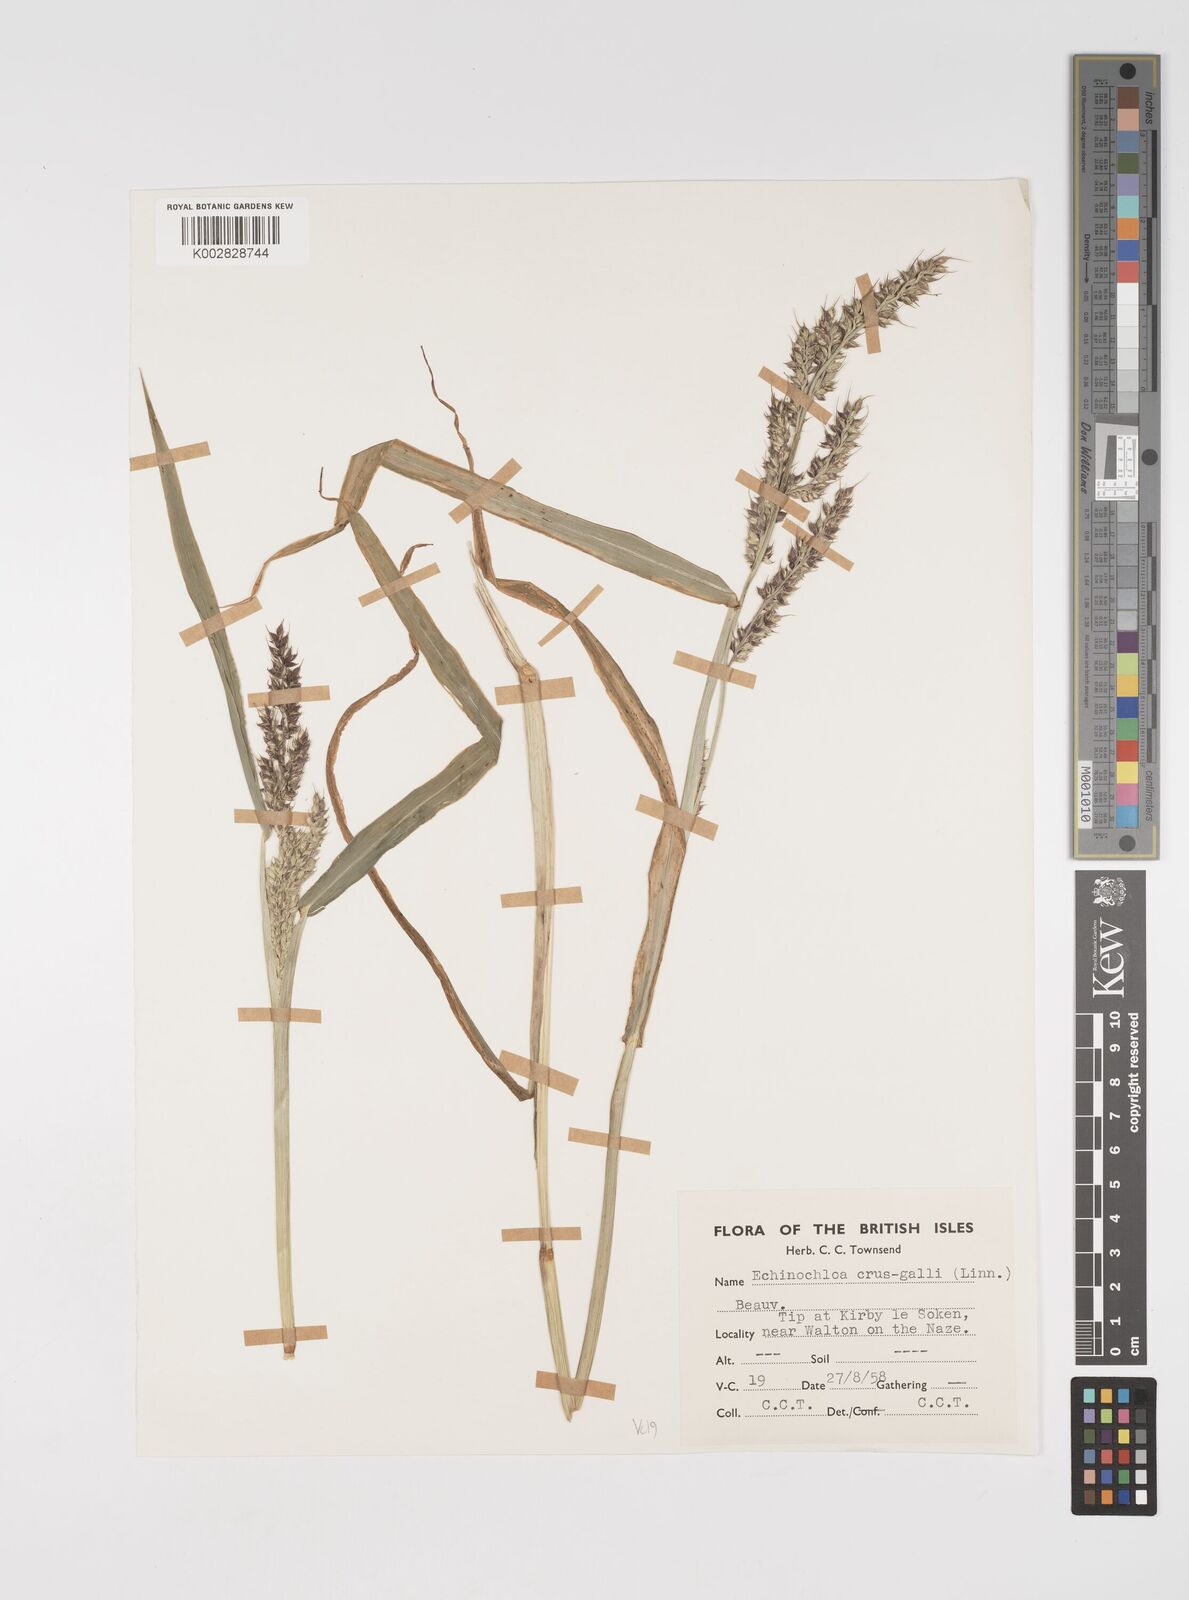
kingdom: Plantae
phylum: Tracheophyta
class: Liliopsida
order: Poales
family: Poaceae
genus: Echinochloa
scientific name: Echinochloa crus-galli
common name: Cockspur
